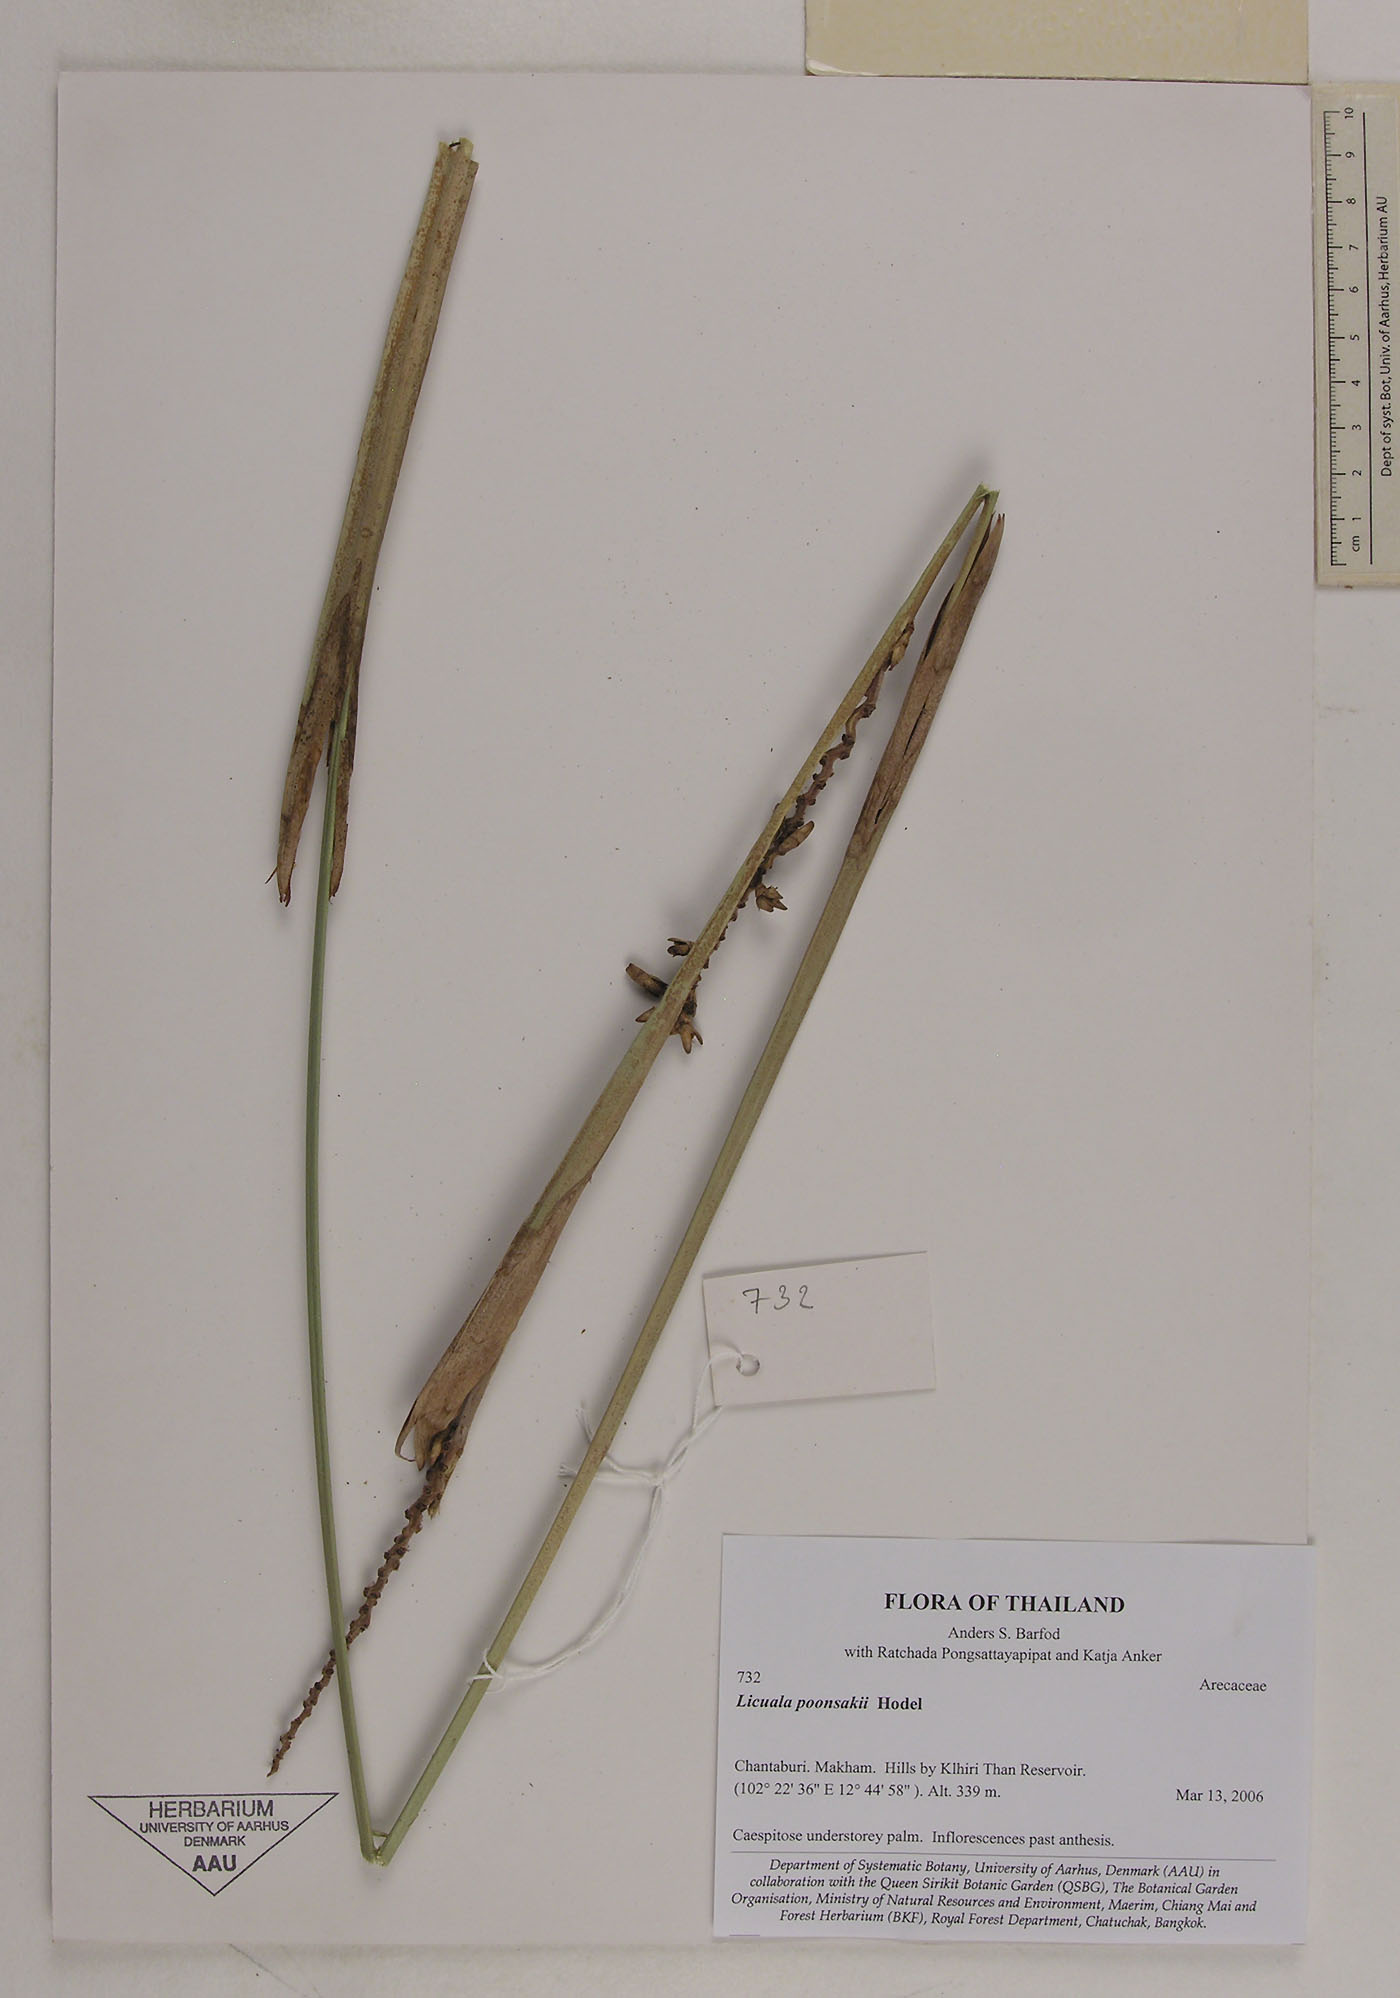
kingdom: Plantae
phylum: Tracheophyta
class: Liliopsida
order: Arecales
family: Arecaceae
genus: Licuala
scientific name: Licuala poonsakii
